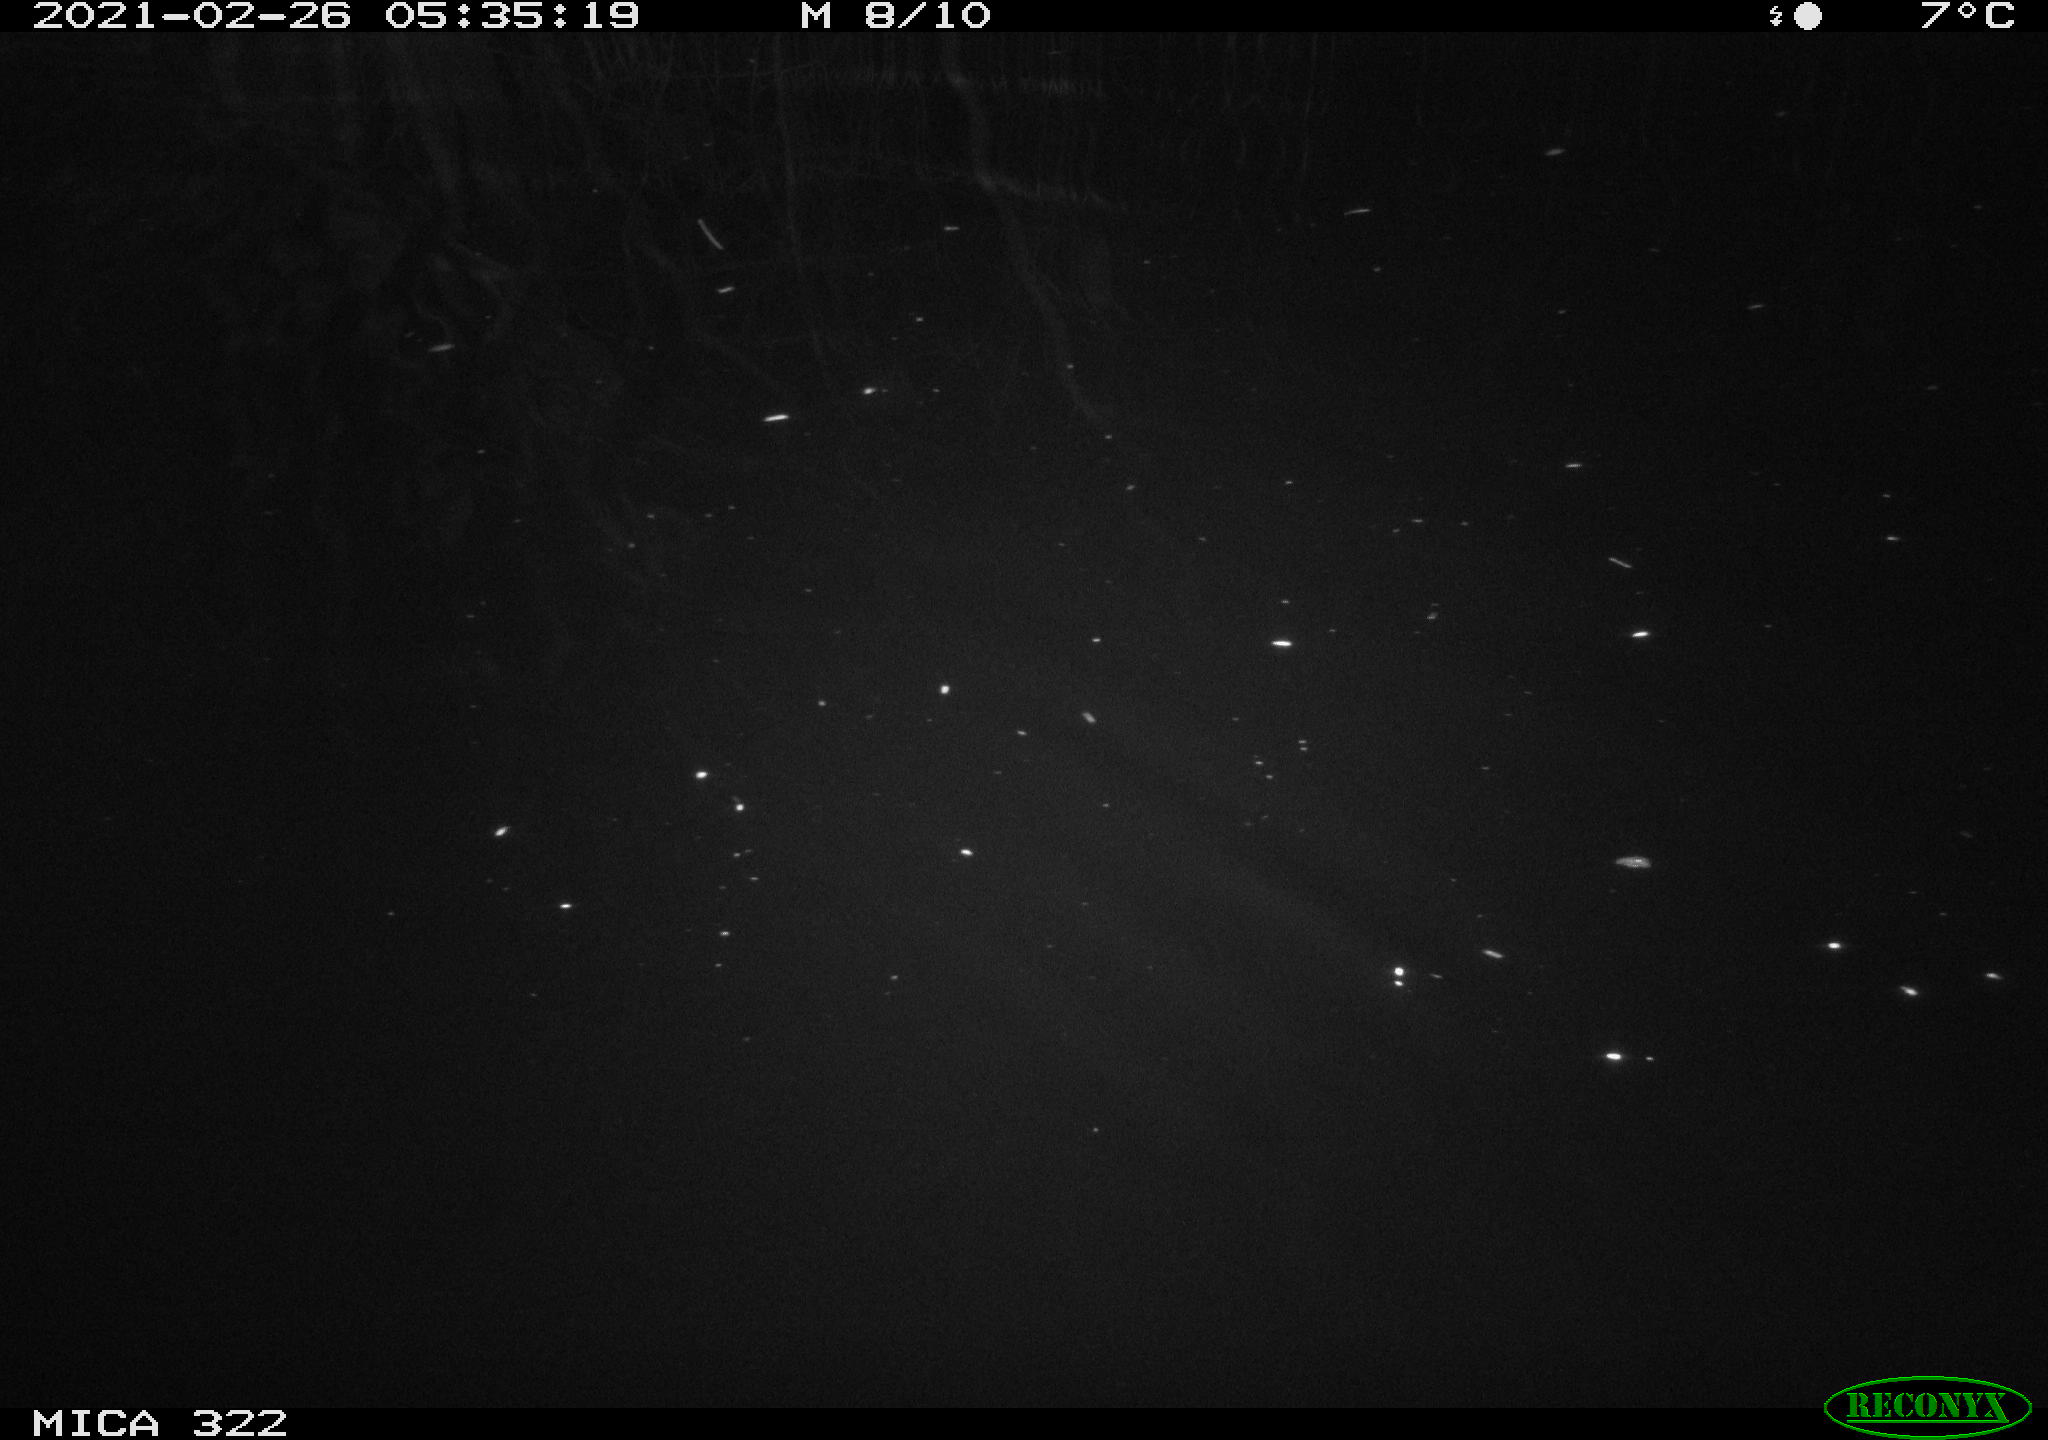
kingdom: Animalia
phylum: Chordata
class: Mammalia
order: Rodentia
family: Muridae
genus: Rattus
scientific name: Rattus norvegicus
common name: Brown rat
